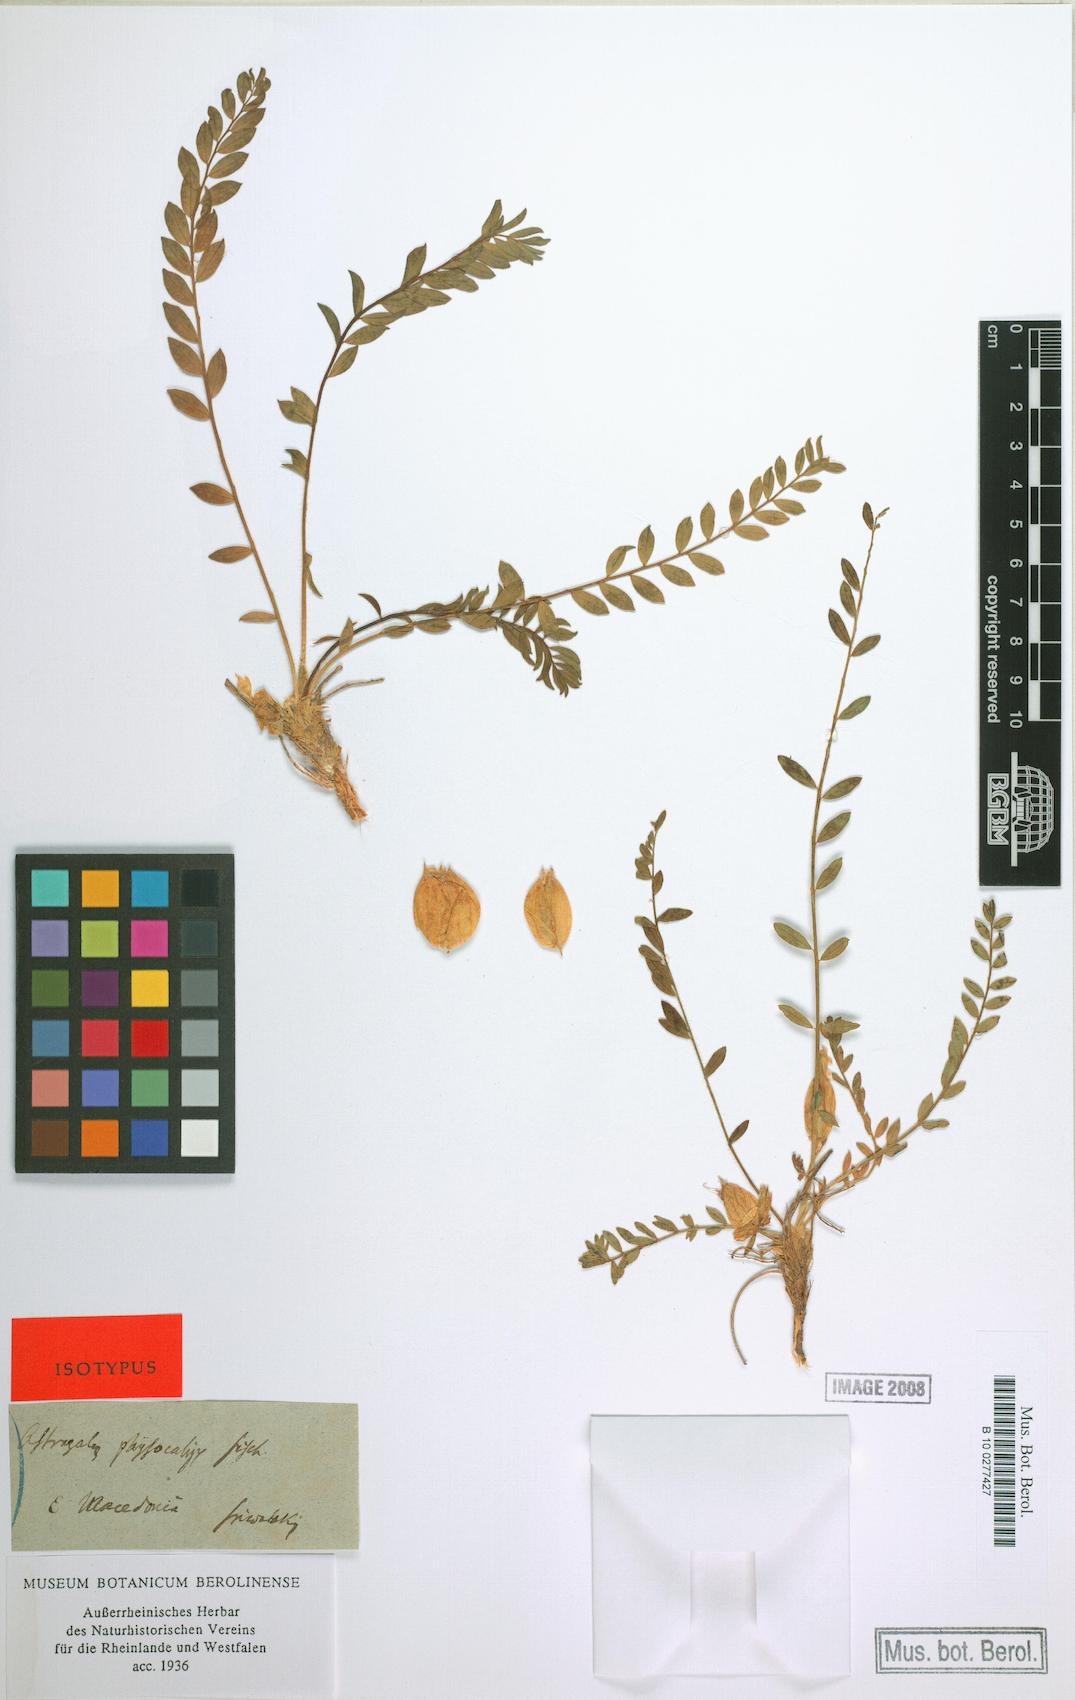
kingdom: Plantae
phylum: Tracheophyta
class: Magnoliopsida
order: Fabales
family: Fabaceae
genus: Astragalus
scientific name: Astragalus physocalyx
